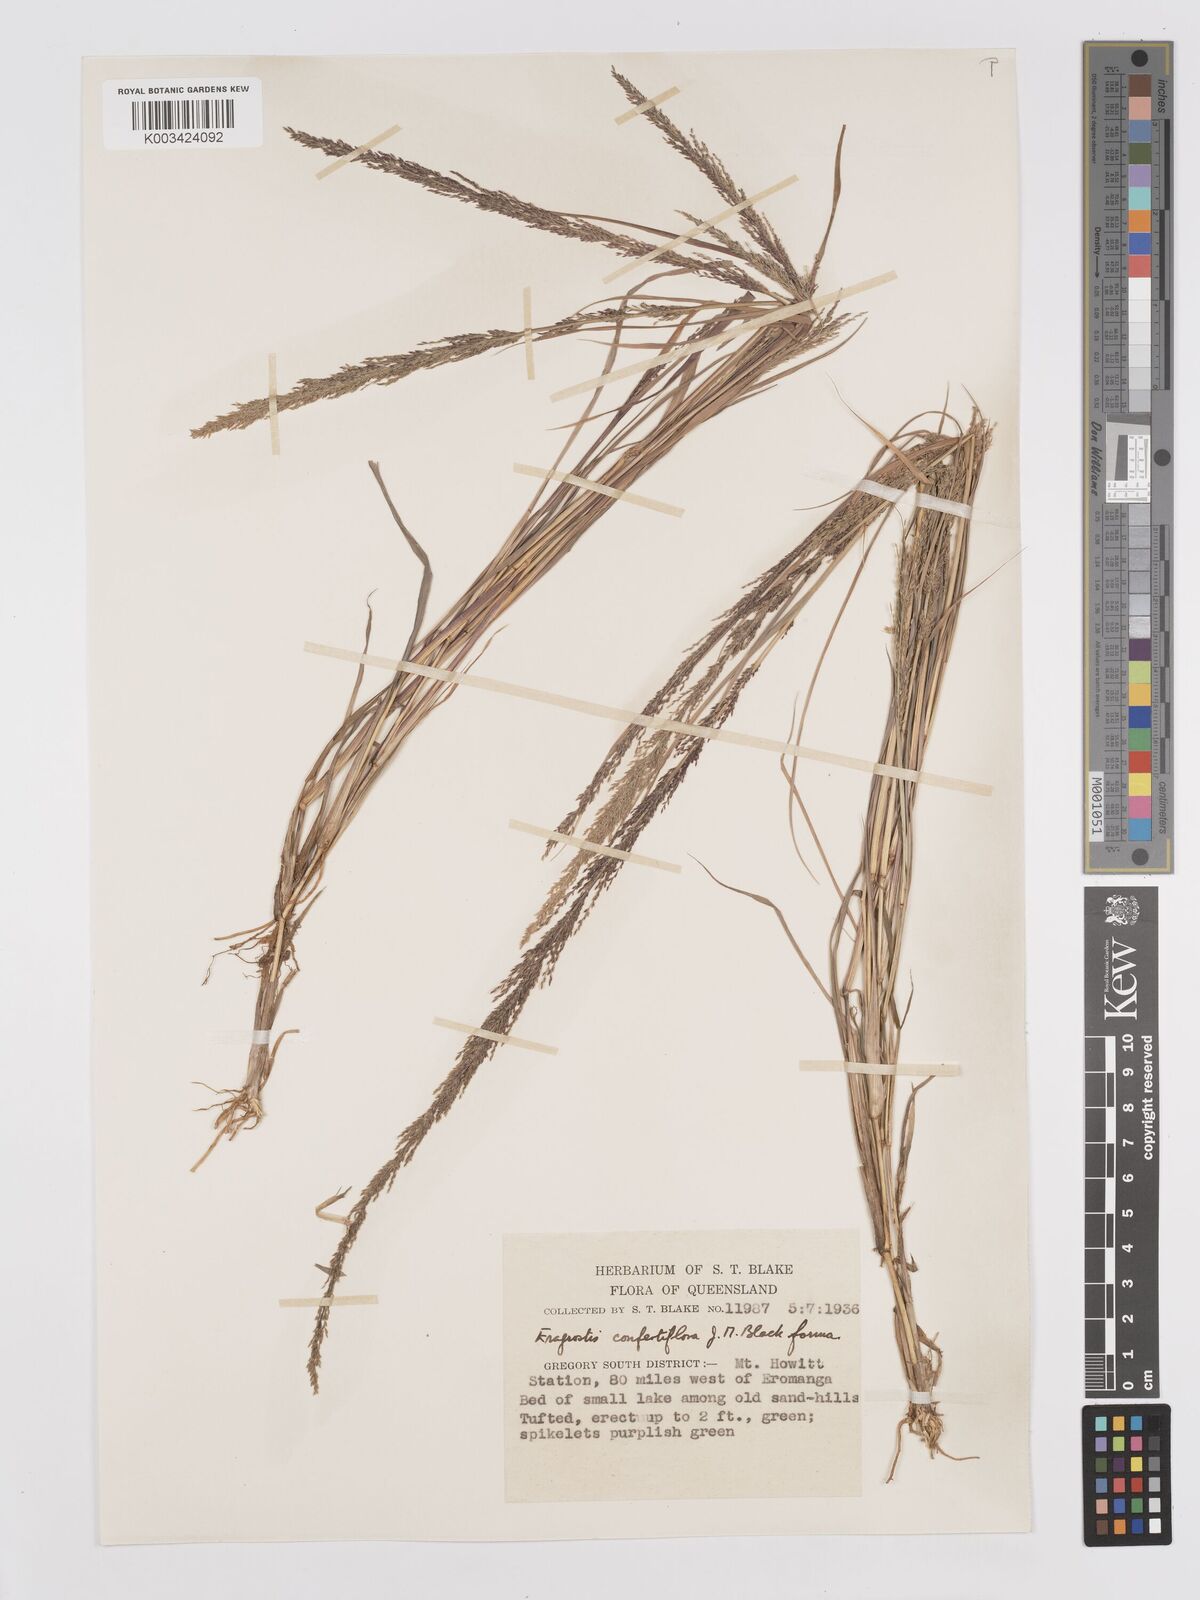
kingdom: Plantae
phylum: Tracheophyta
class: Liliopsida
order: Poales
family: Poaceae
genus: Eragrostis
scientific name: Eragrostis confertiflora
